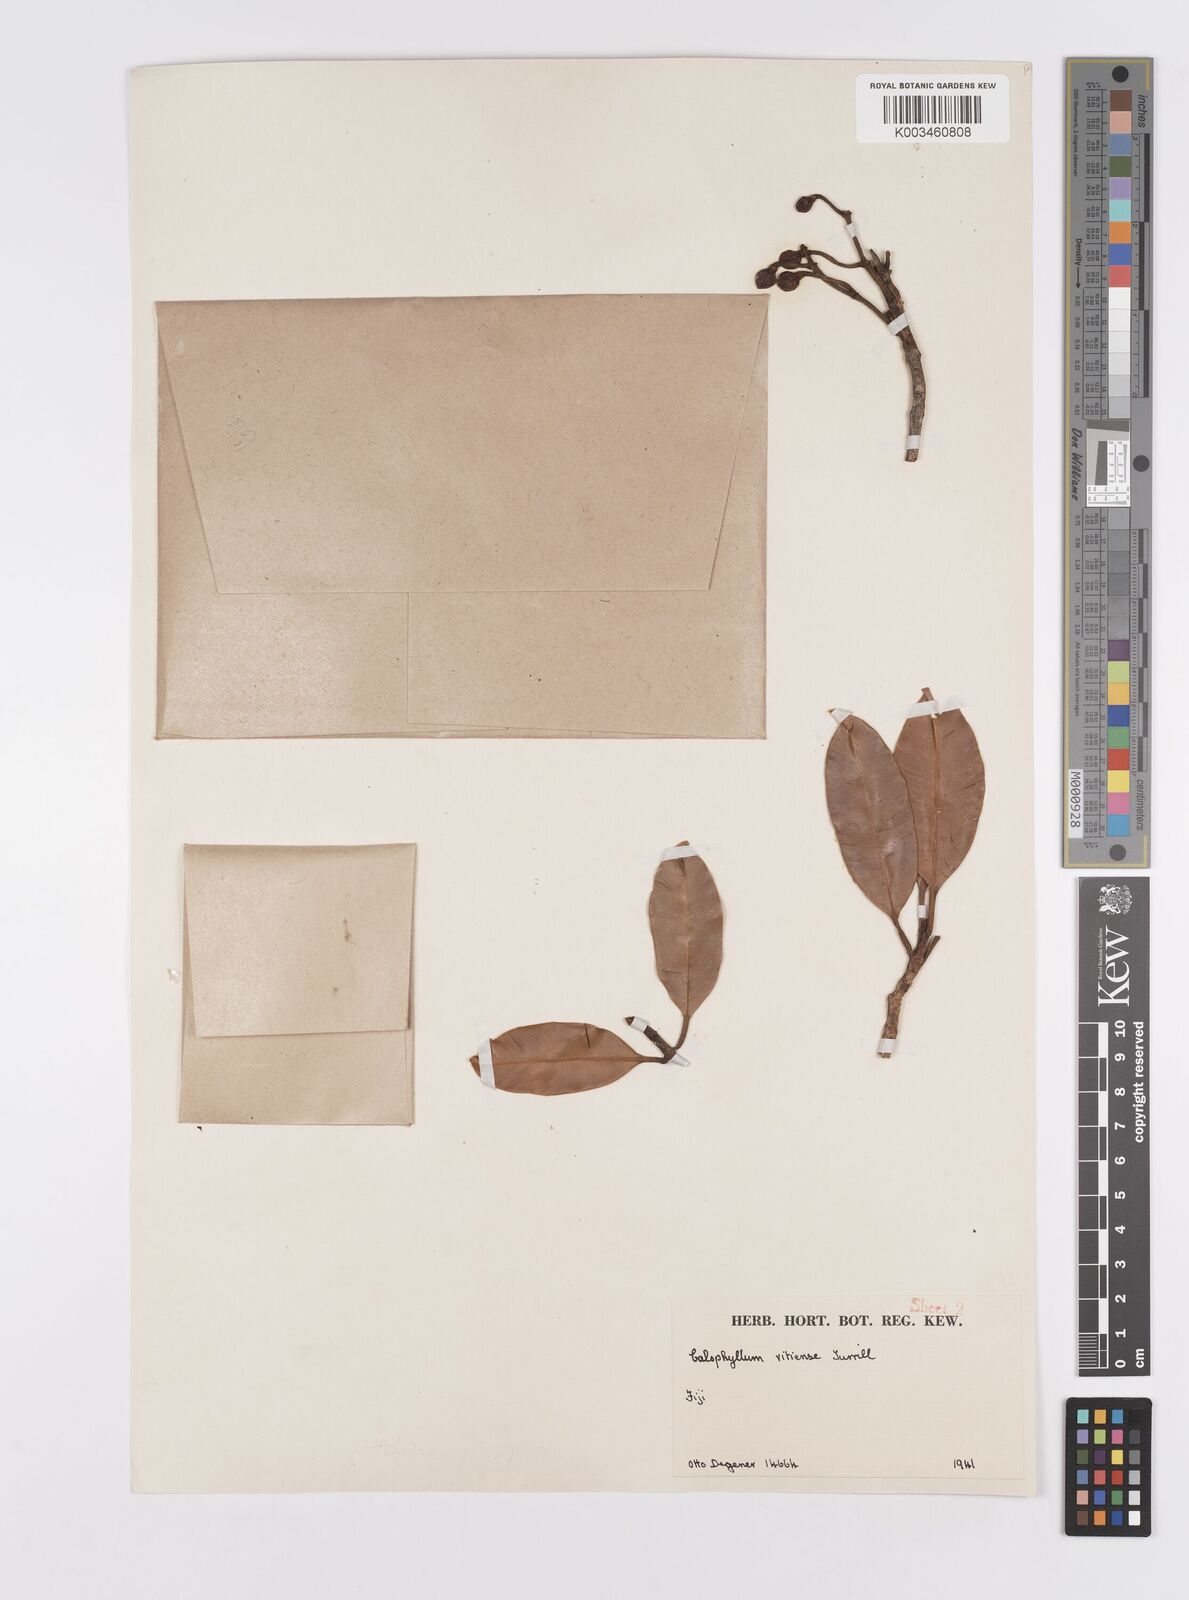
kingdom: Plantae
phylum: Tracheophyta
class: Magnoliopsida
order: Malpighiales
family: Calophyllaceae
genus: Calophyllum
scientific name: Calophyllum cerasiferum
